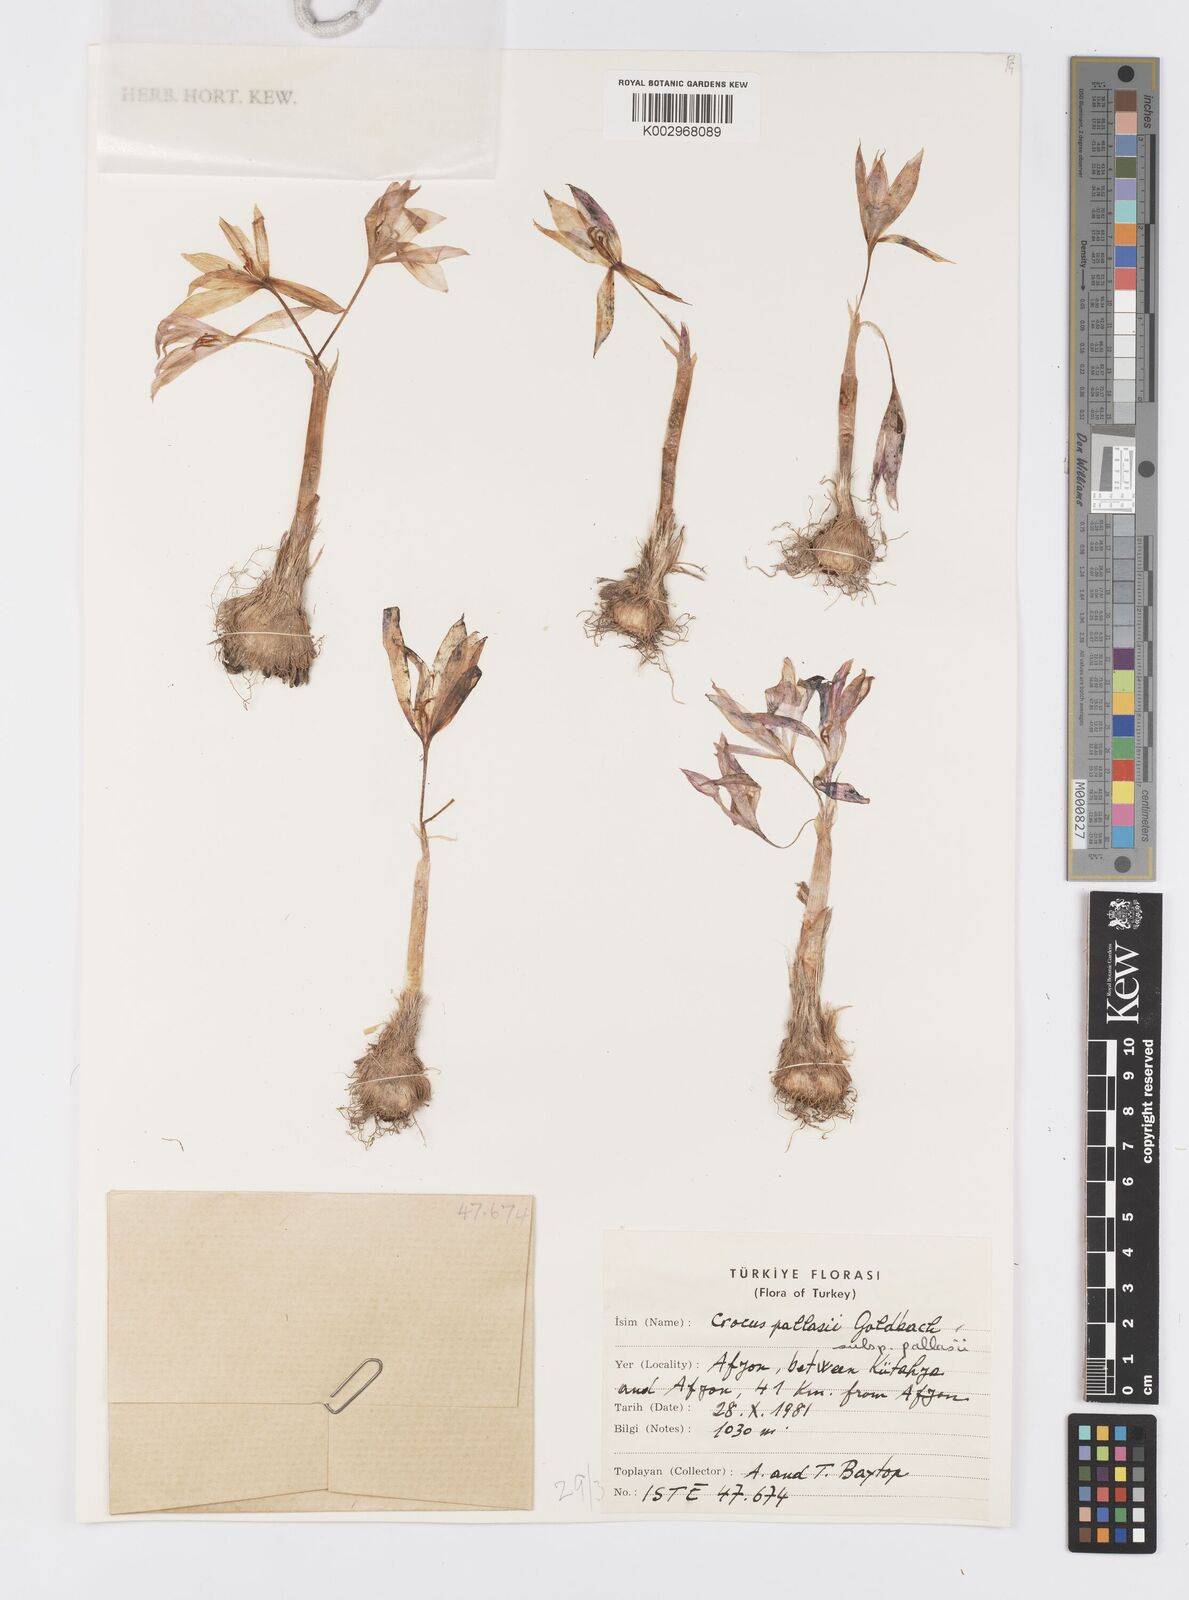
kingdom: Plantae
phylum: Tracheophyta
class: Liliopsida
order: Asparagales
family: Iridaceae
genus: Crocus
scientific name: Crocus
